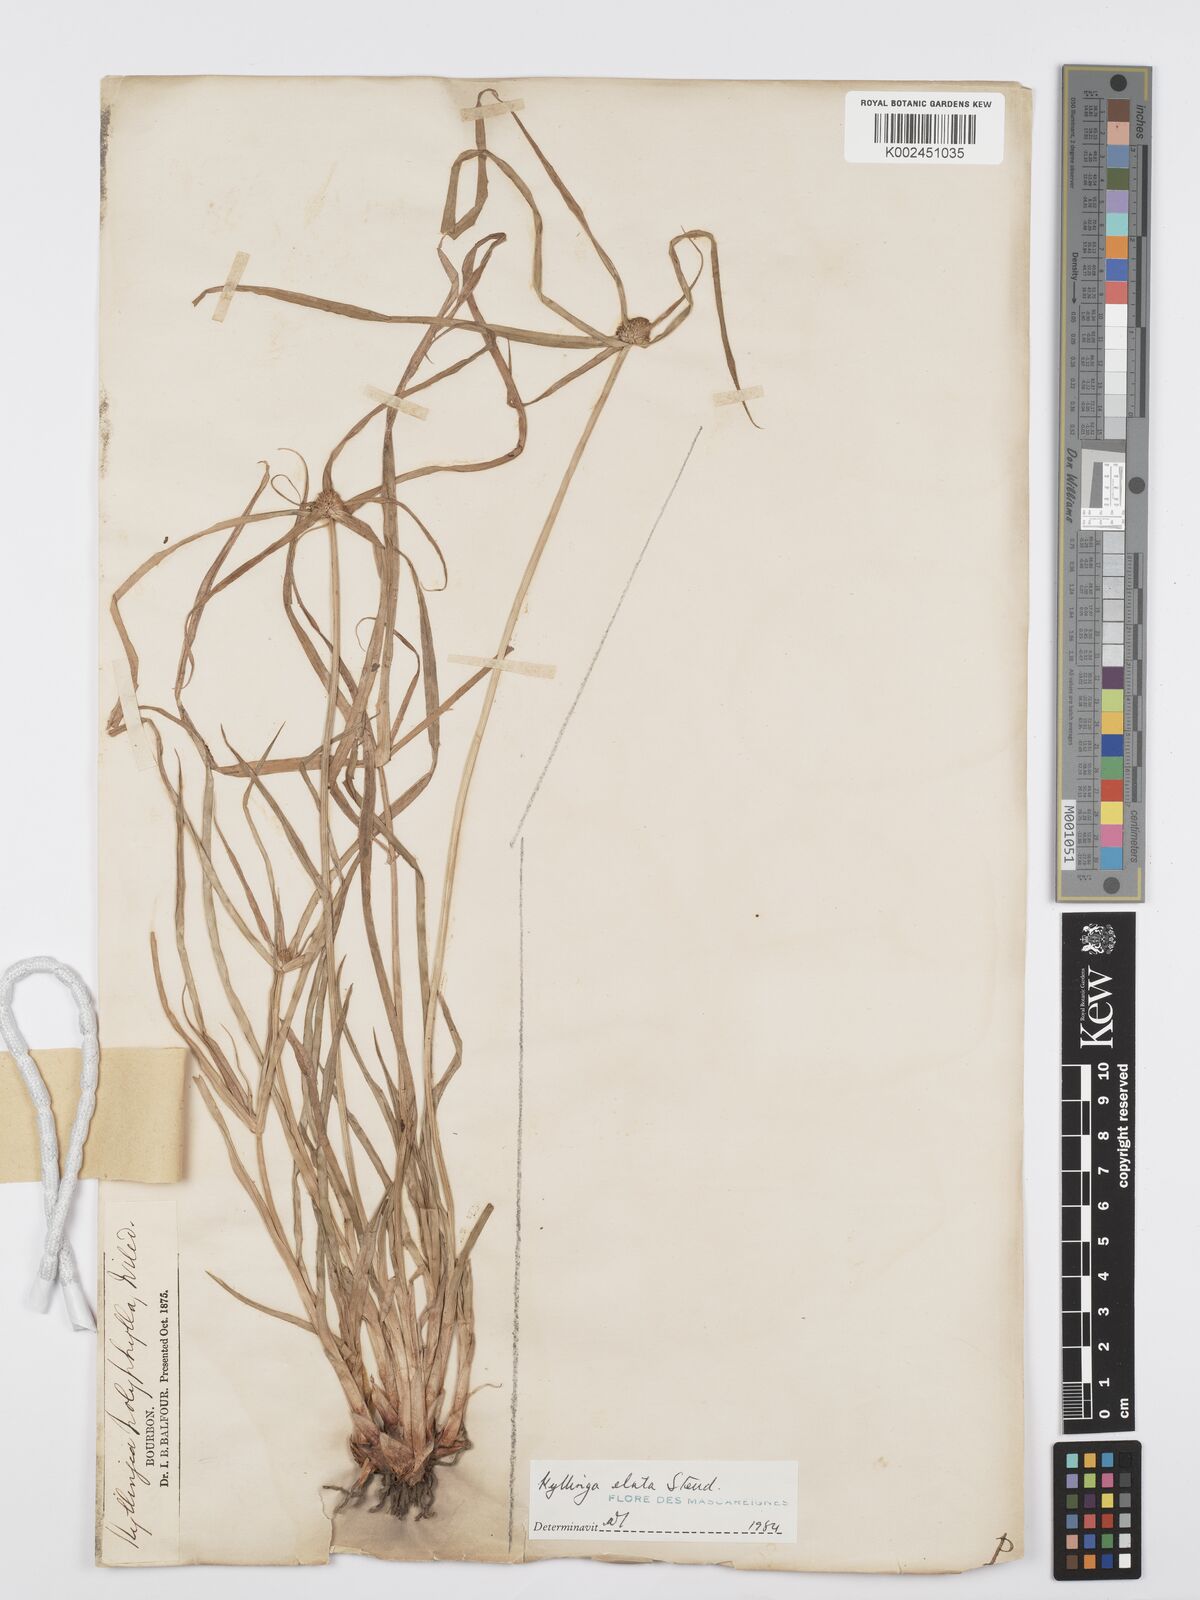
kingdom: Plantae
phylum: Tracheophyta
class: Liliopsida
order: Poales
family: Cyperaceae
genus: Cyperus
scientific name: Cyperus bulbosus
